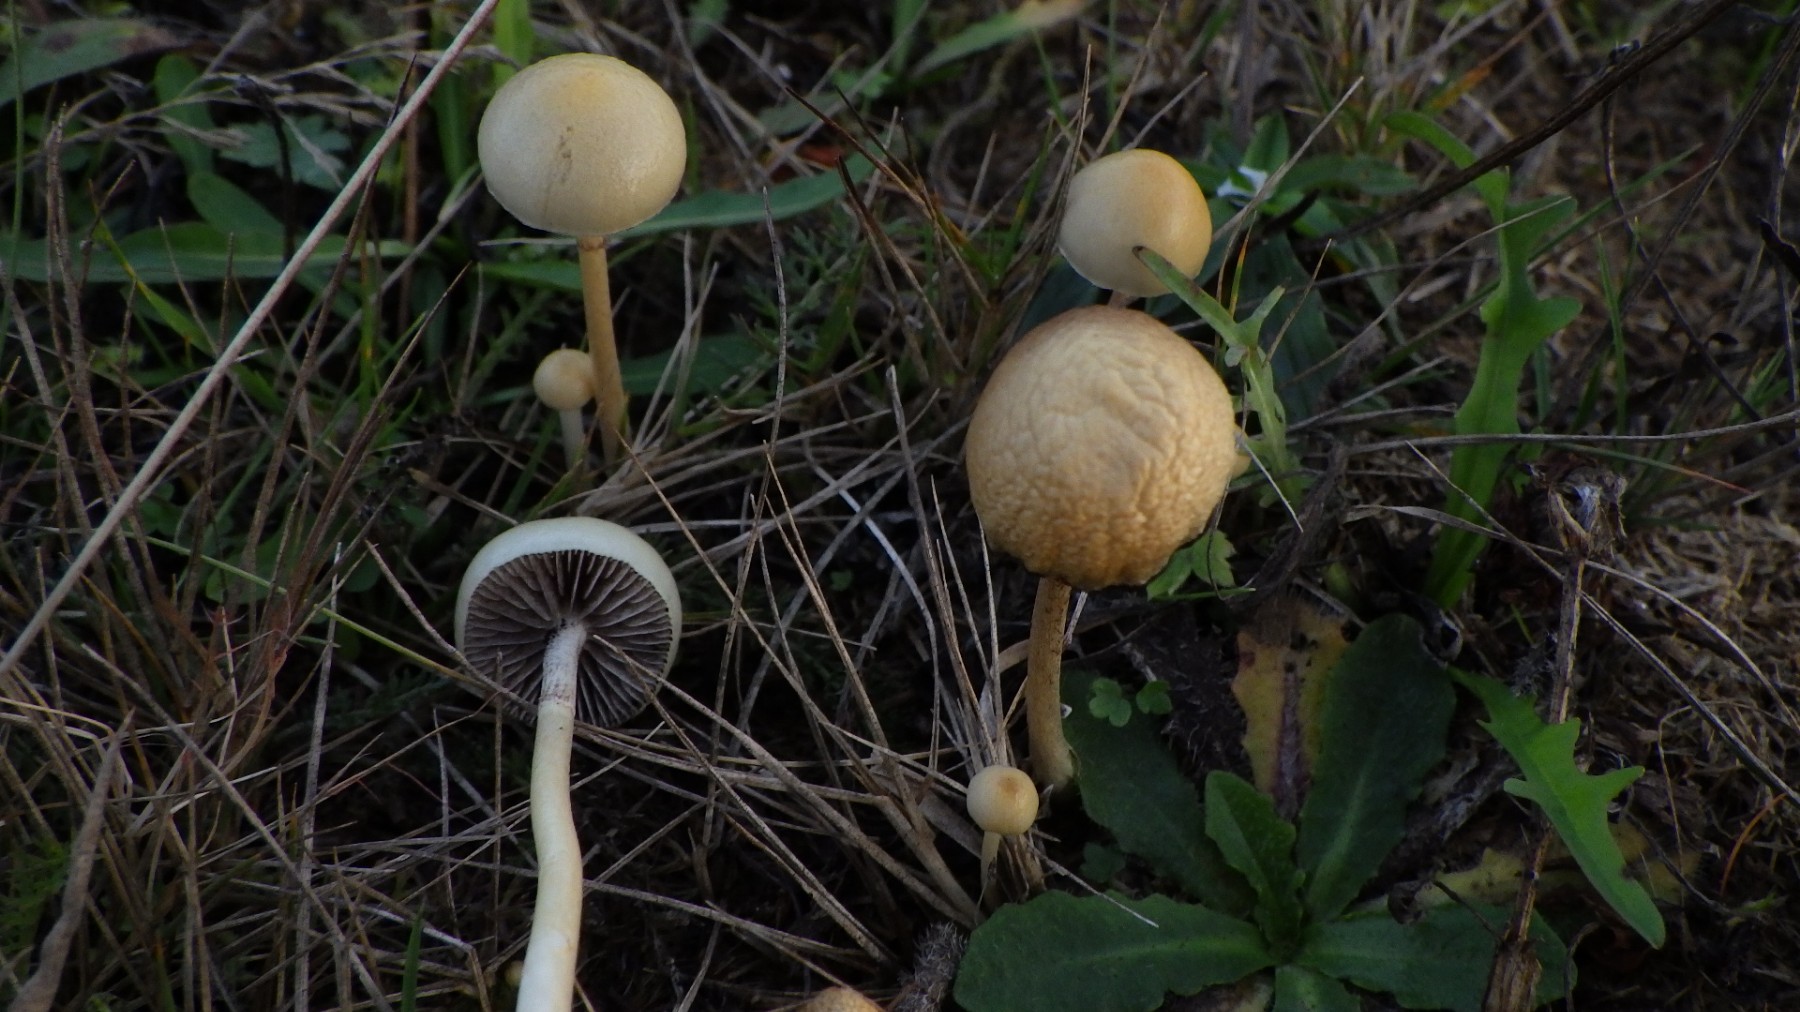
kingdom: Fungi
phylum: Basidiomycota
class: Agaricomycetes
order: Agaricales
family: Strophariaceae
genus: Protostropharia
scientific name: Protostropharia semiglobata
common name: halvkugleformet bredblad
